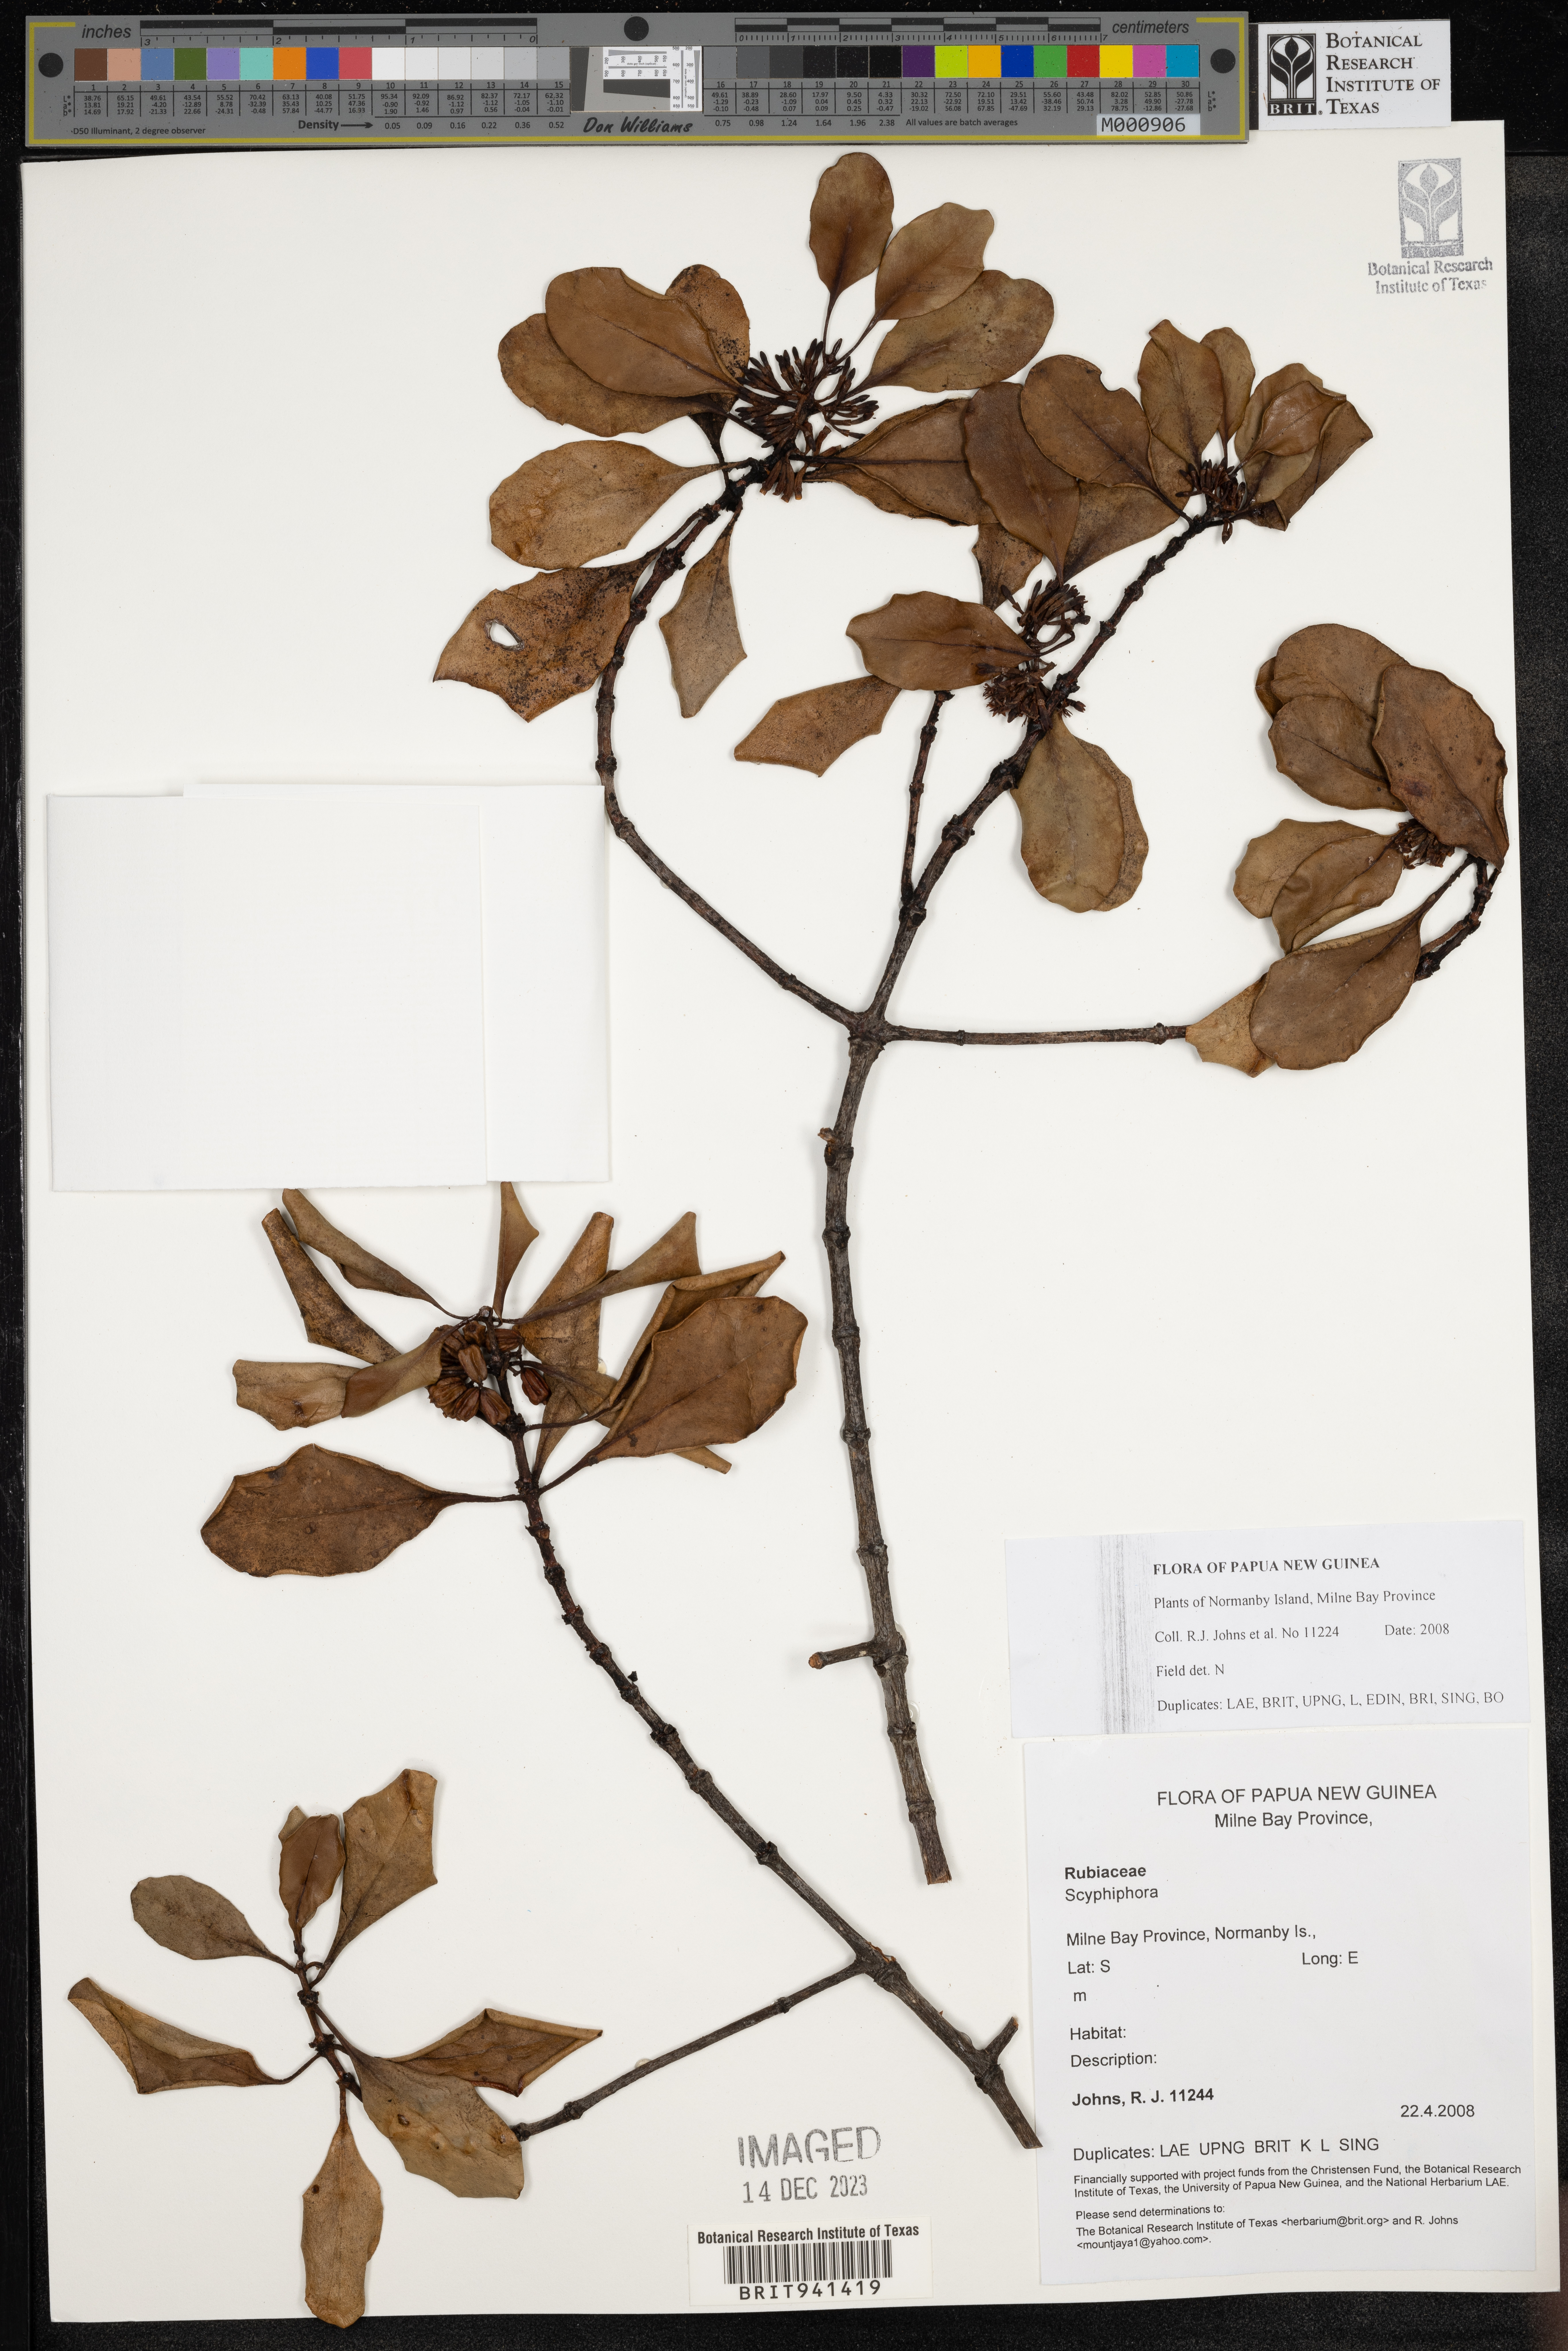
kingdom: Plantae
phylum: Tracheophyta
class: Magnoliopsida
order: Gentianales
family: Rubiaceae
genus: Scyphiphora
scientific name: Scyphiphora
